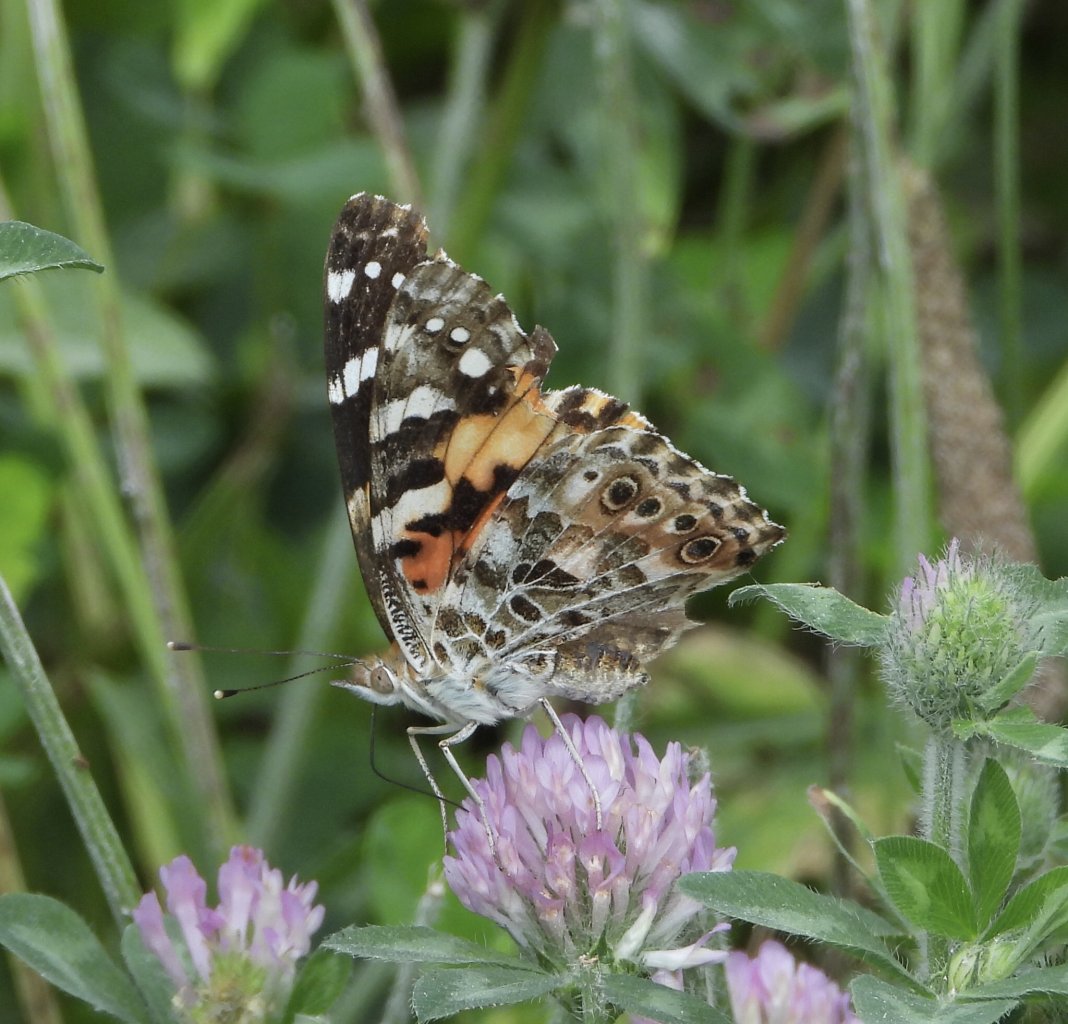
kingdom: Animalia
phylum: Arthropoda
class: Insecta
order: Lepidoptera
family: Nymphalidae
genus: Vanessa
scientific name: Vanessa cardui
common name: Painted Lady
